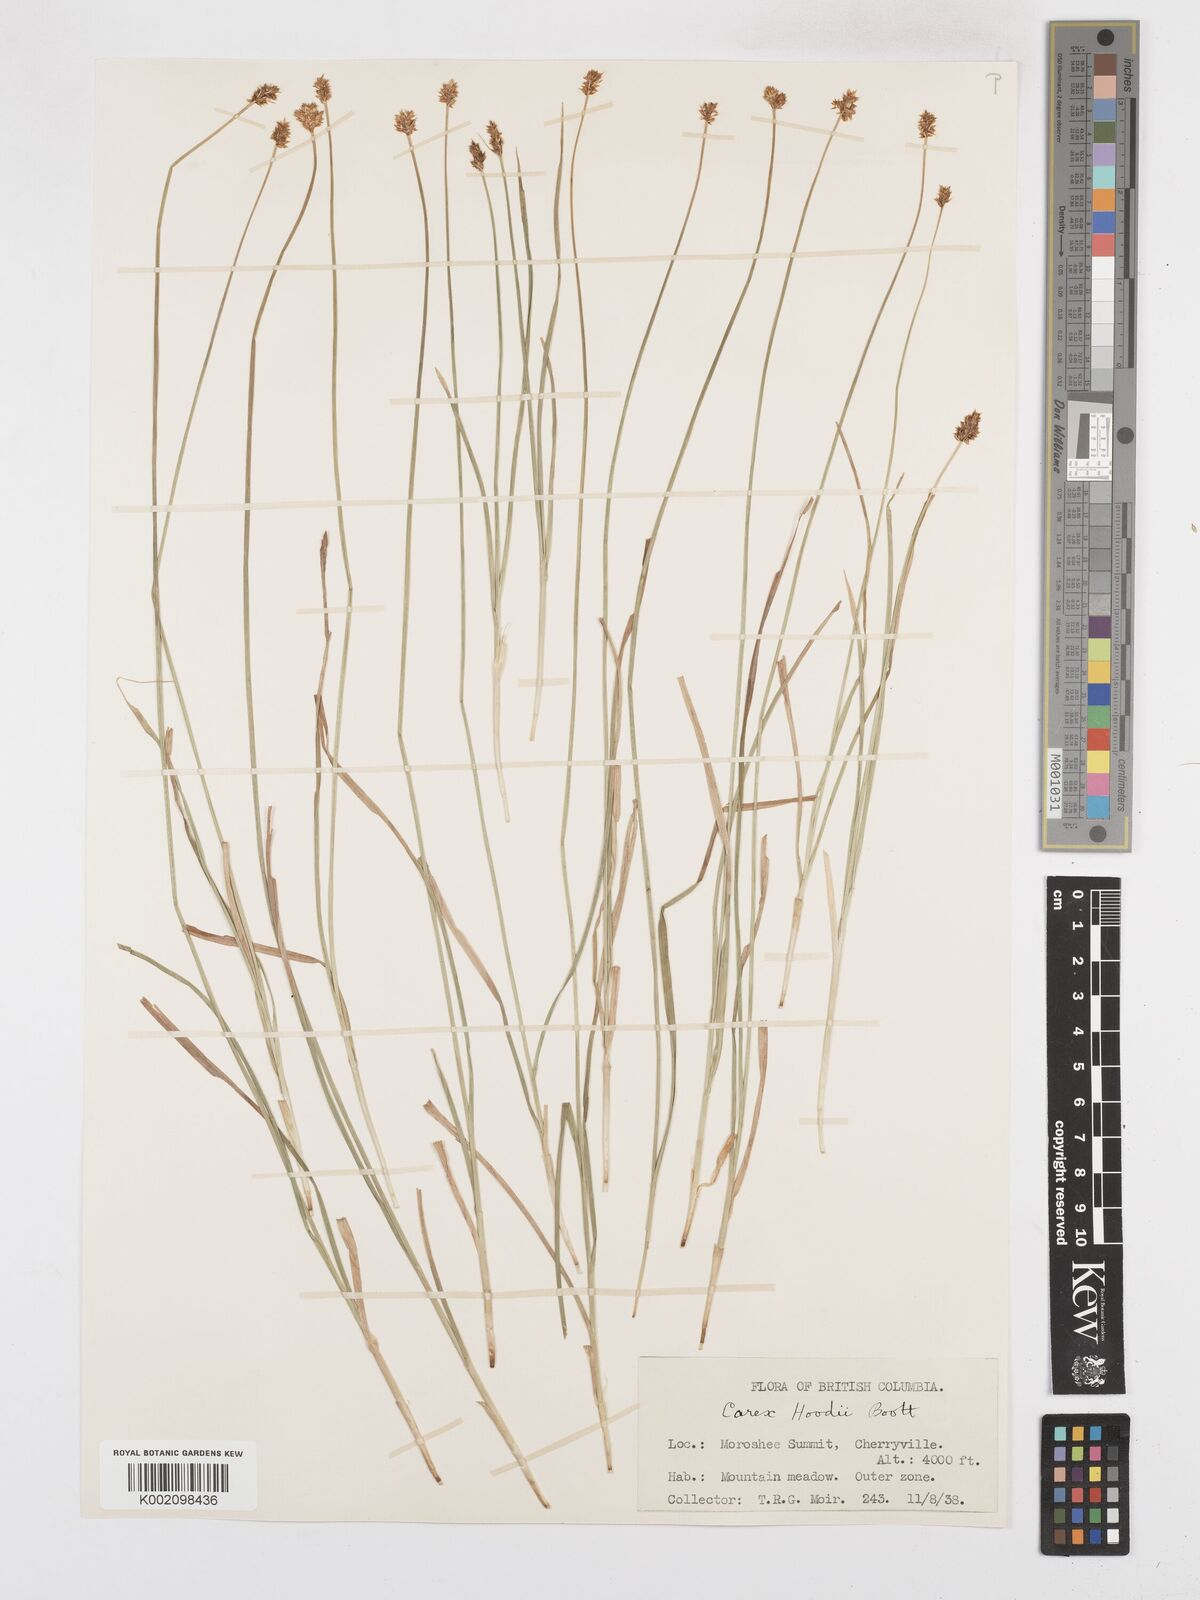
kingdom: Plantae
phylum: Tracheophyta
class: Liliopsida
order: Poales
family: Cyperaceae
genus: Carex
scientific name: Carex hoodii
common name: Hood's sedge
